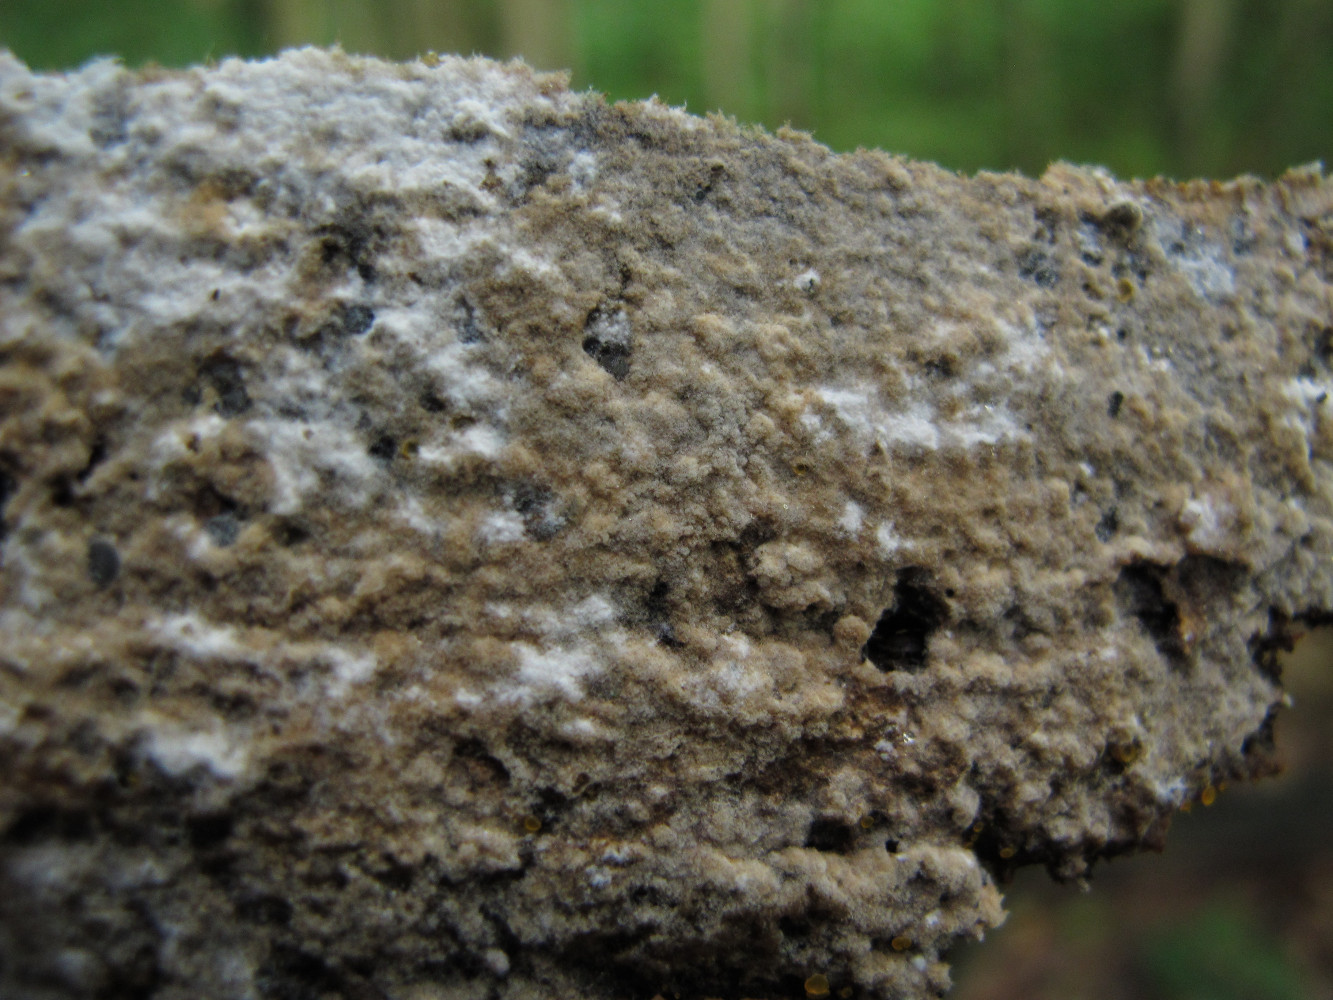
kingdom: Fungi
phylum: Basidiomycota
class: Agaricomycetes
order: Cantharellales
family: Botryobasidiaceae
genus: Botryobasidium
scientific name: Botryobasidium isabellinum
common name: isabellafarvet spindhinde
